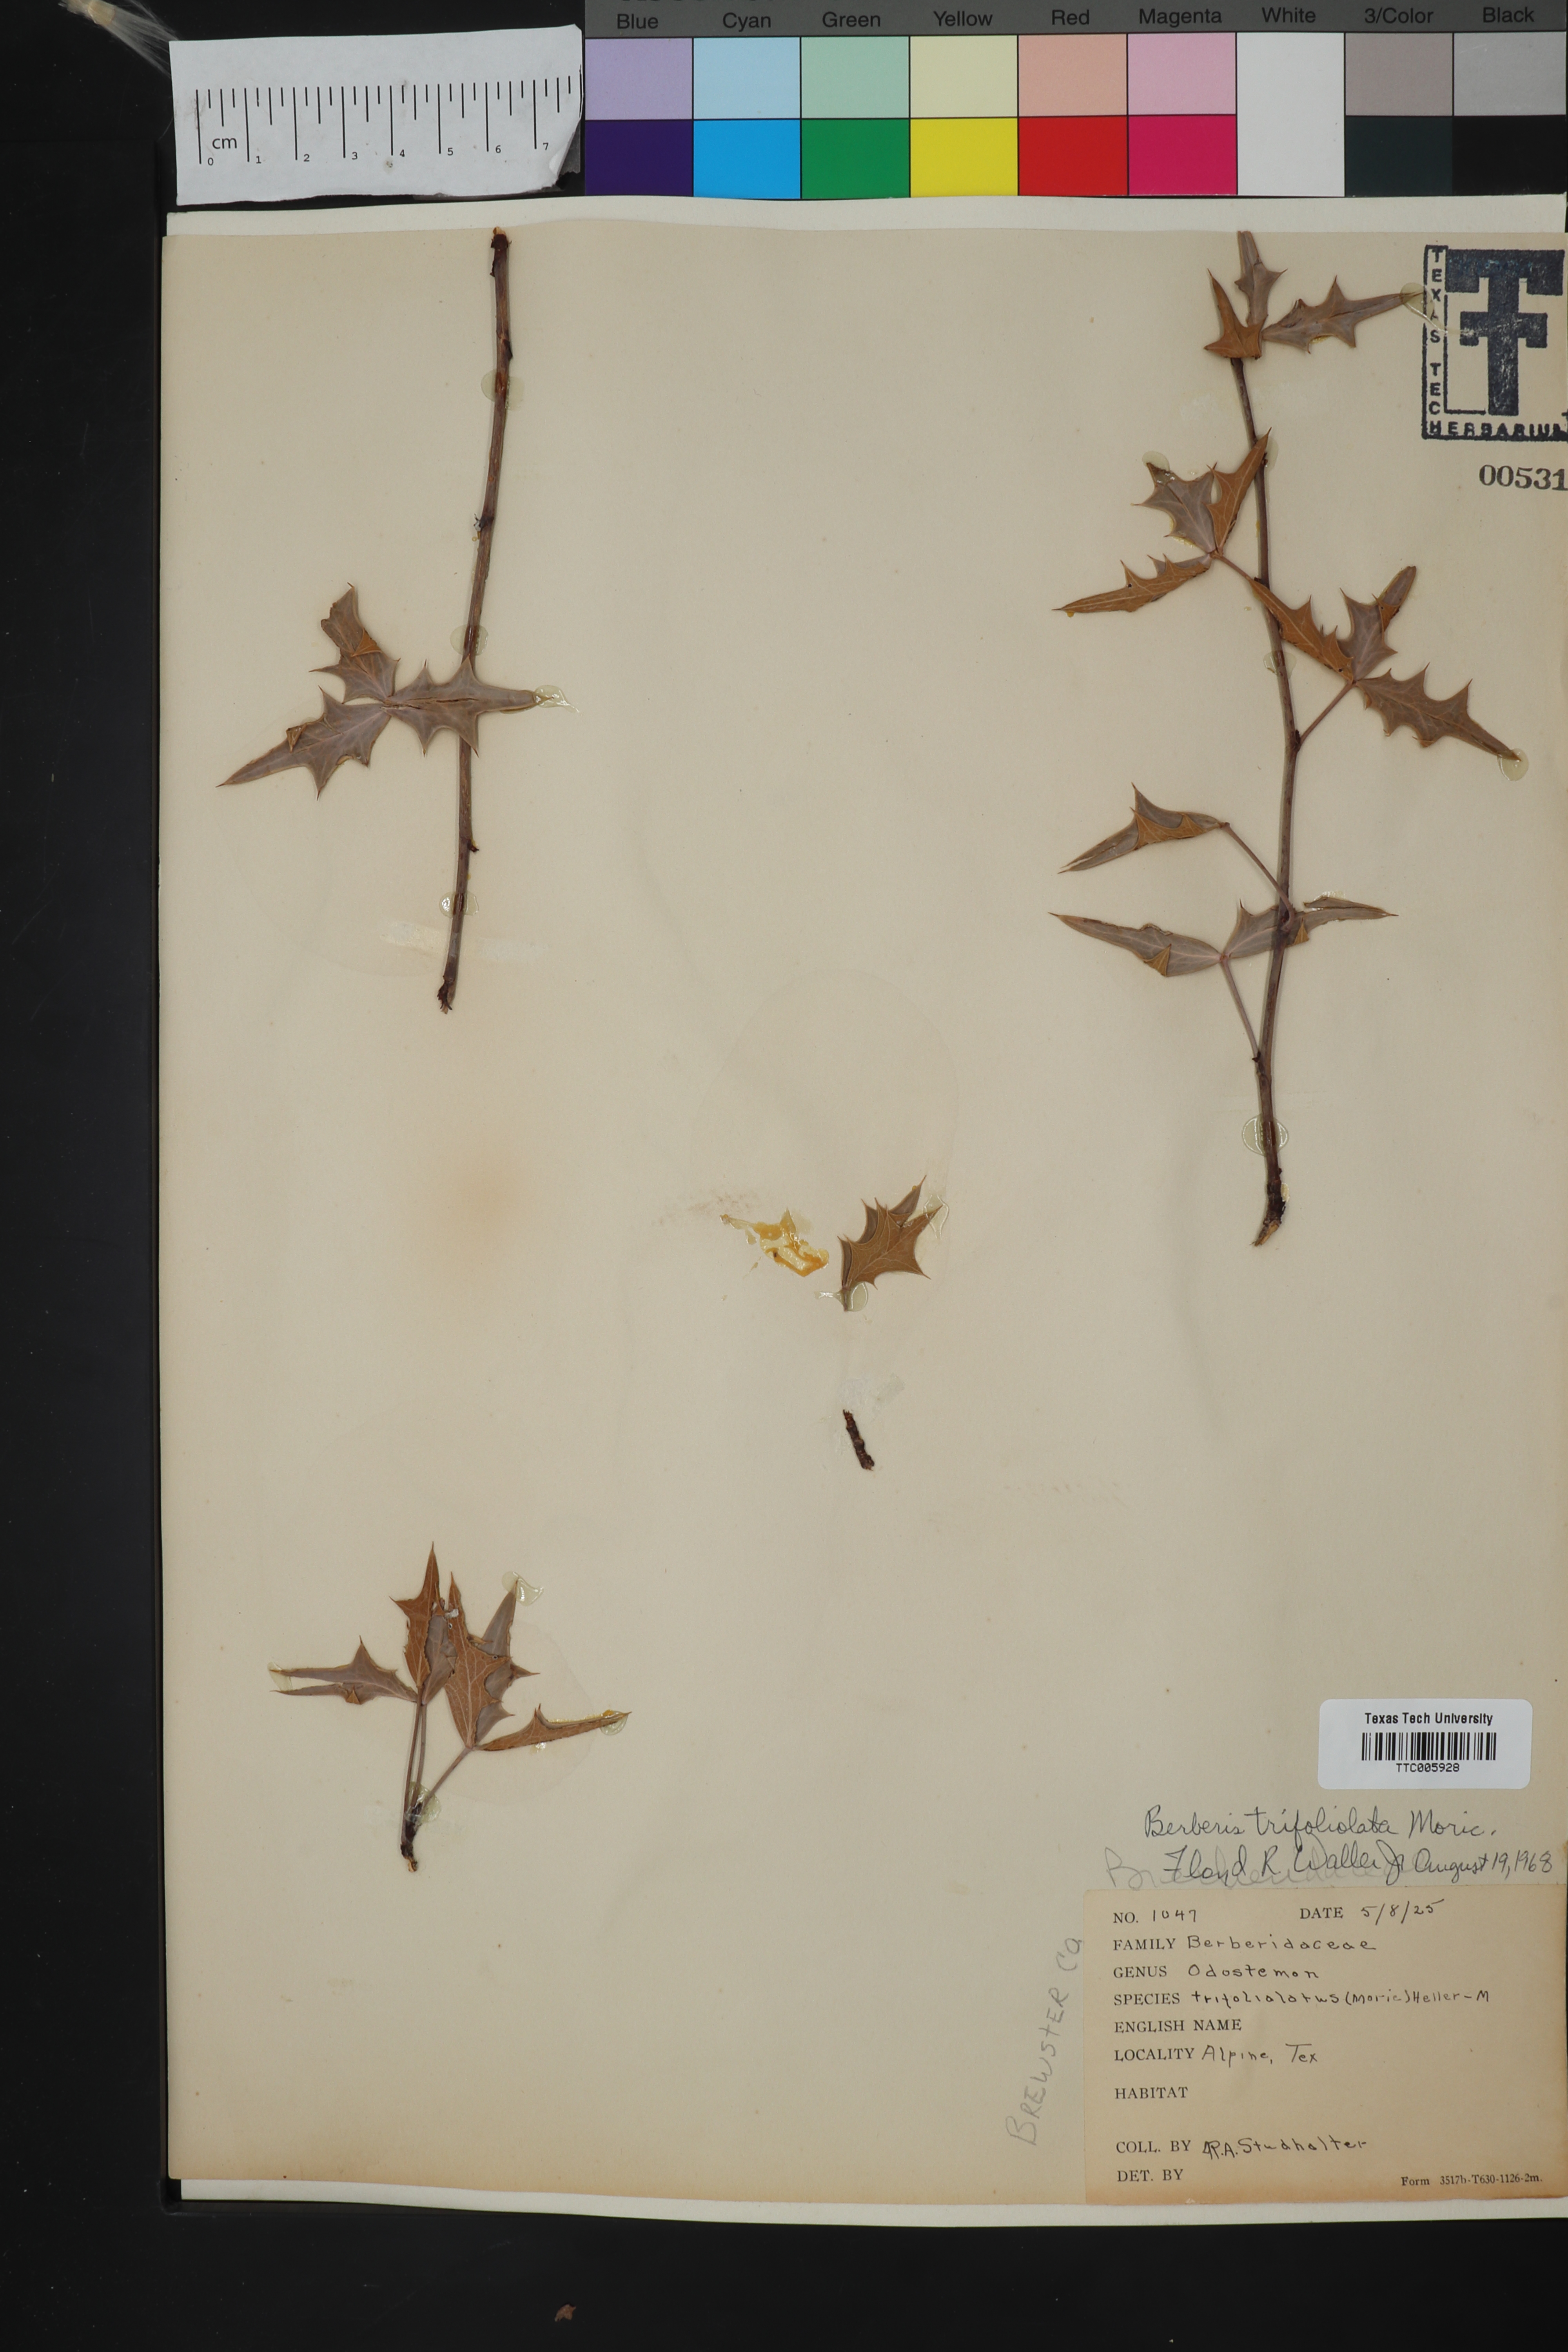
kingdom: Plantae
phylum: Tracheophyta
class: Magnoliopsida
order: Ranunculales
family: Berberidaceae
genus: Alloberberis
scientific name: Alloberberis trifoliolata
